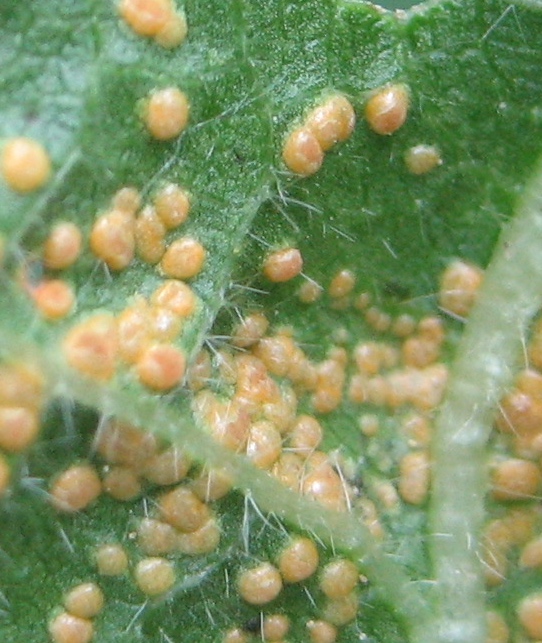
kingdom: Fungi
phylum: Basidiomycota
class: Pucciniomycetes
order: Pucciniales
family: Pucciniaceae
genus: Puccinia
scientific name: Puccinia malvacearum
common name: stokrose-tvecellerust
